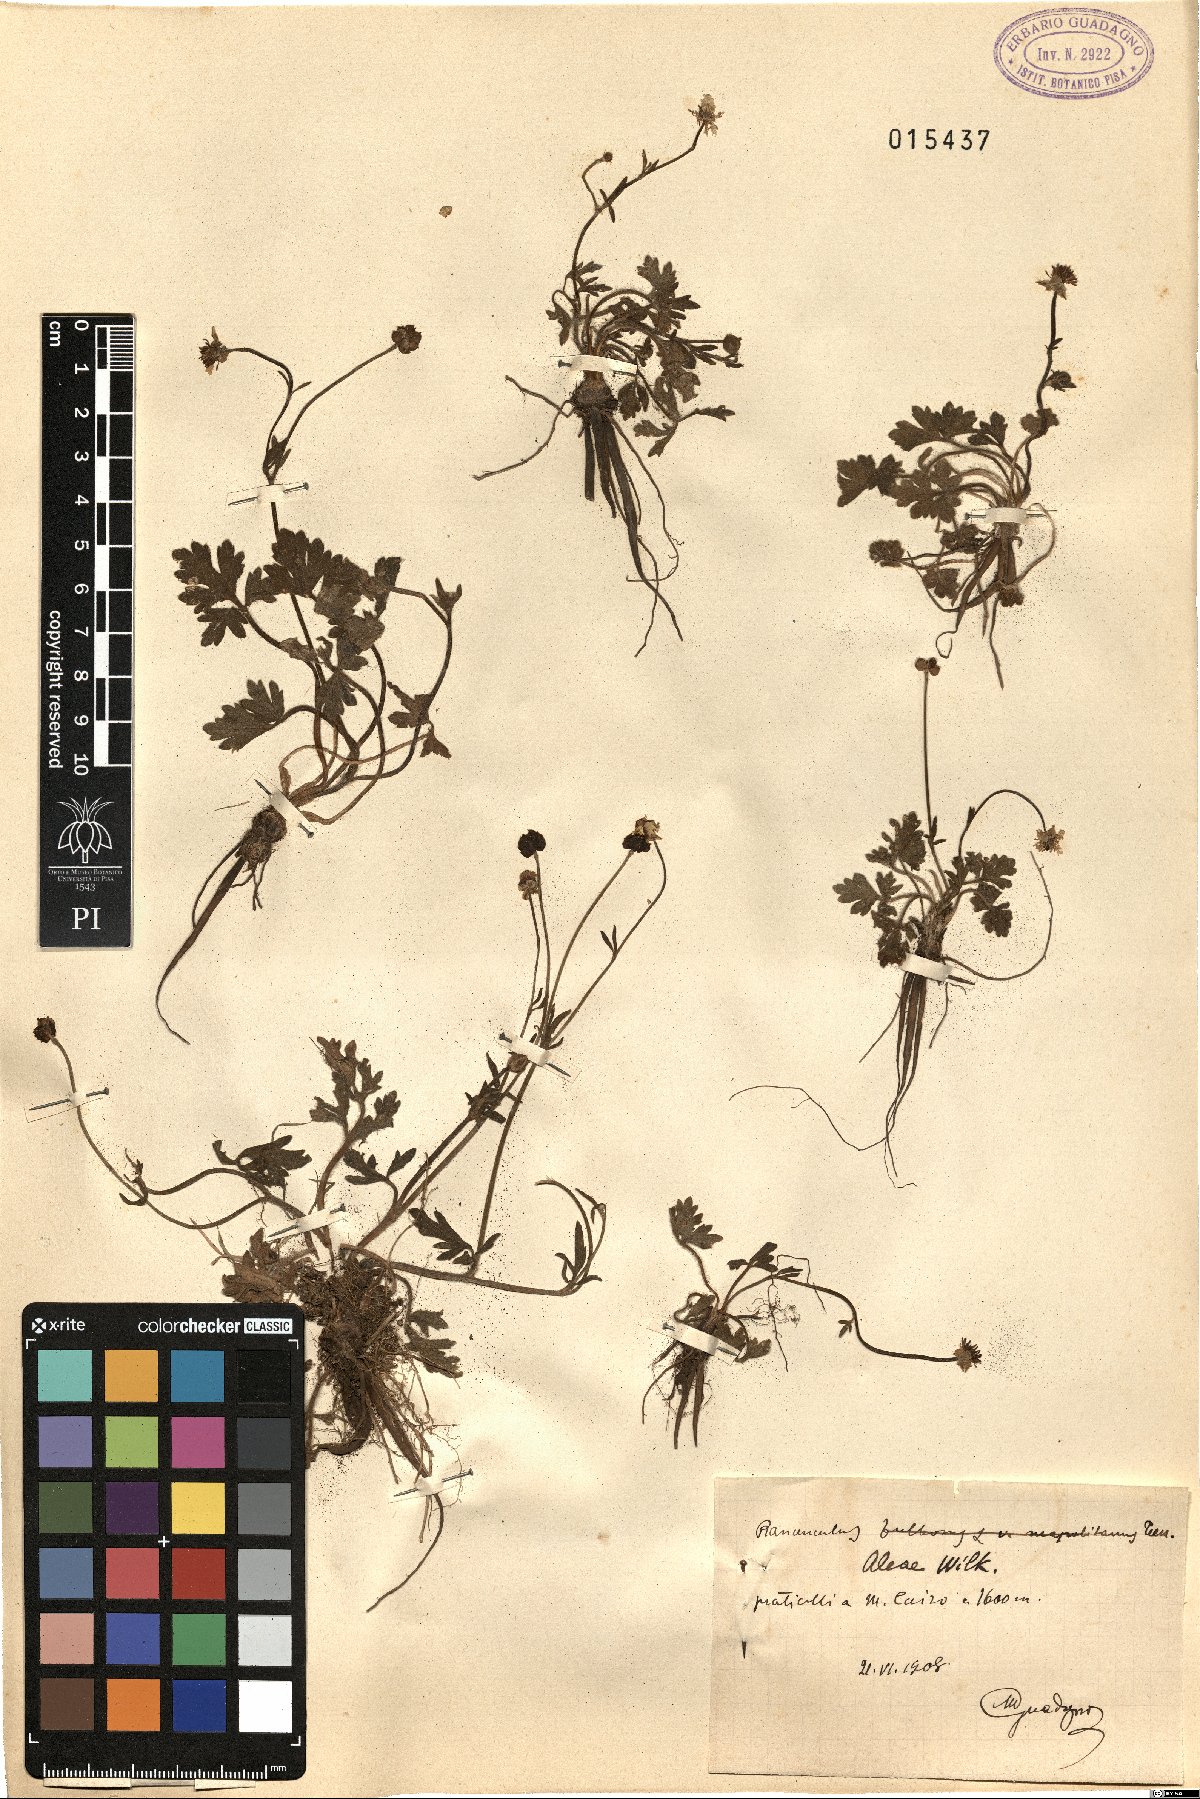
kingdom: Plantae
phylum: Tracheophyta
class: Magnoliopsida
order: Ranunculales
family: Ranunculaceae
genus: Ranunculus
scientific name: Ranunculus neapolitanus
